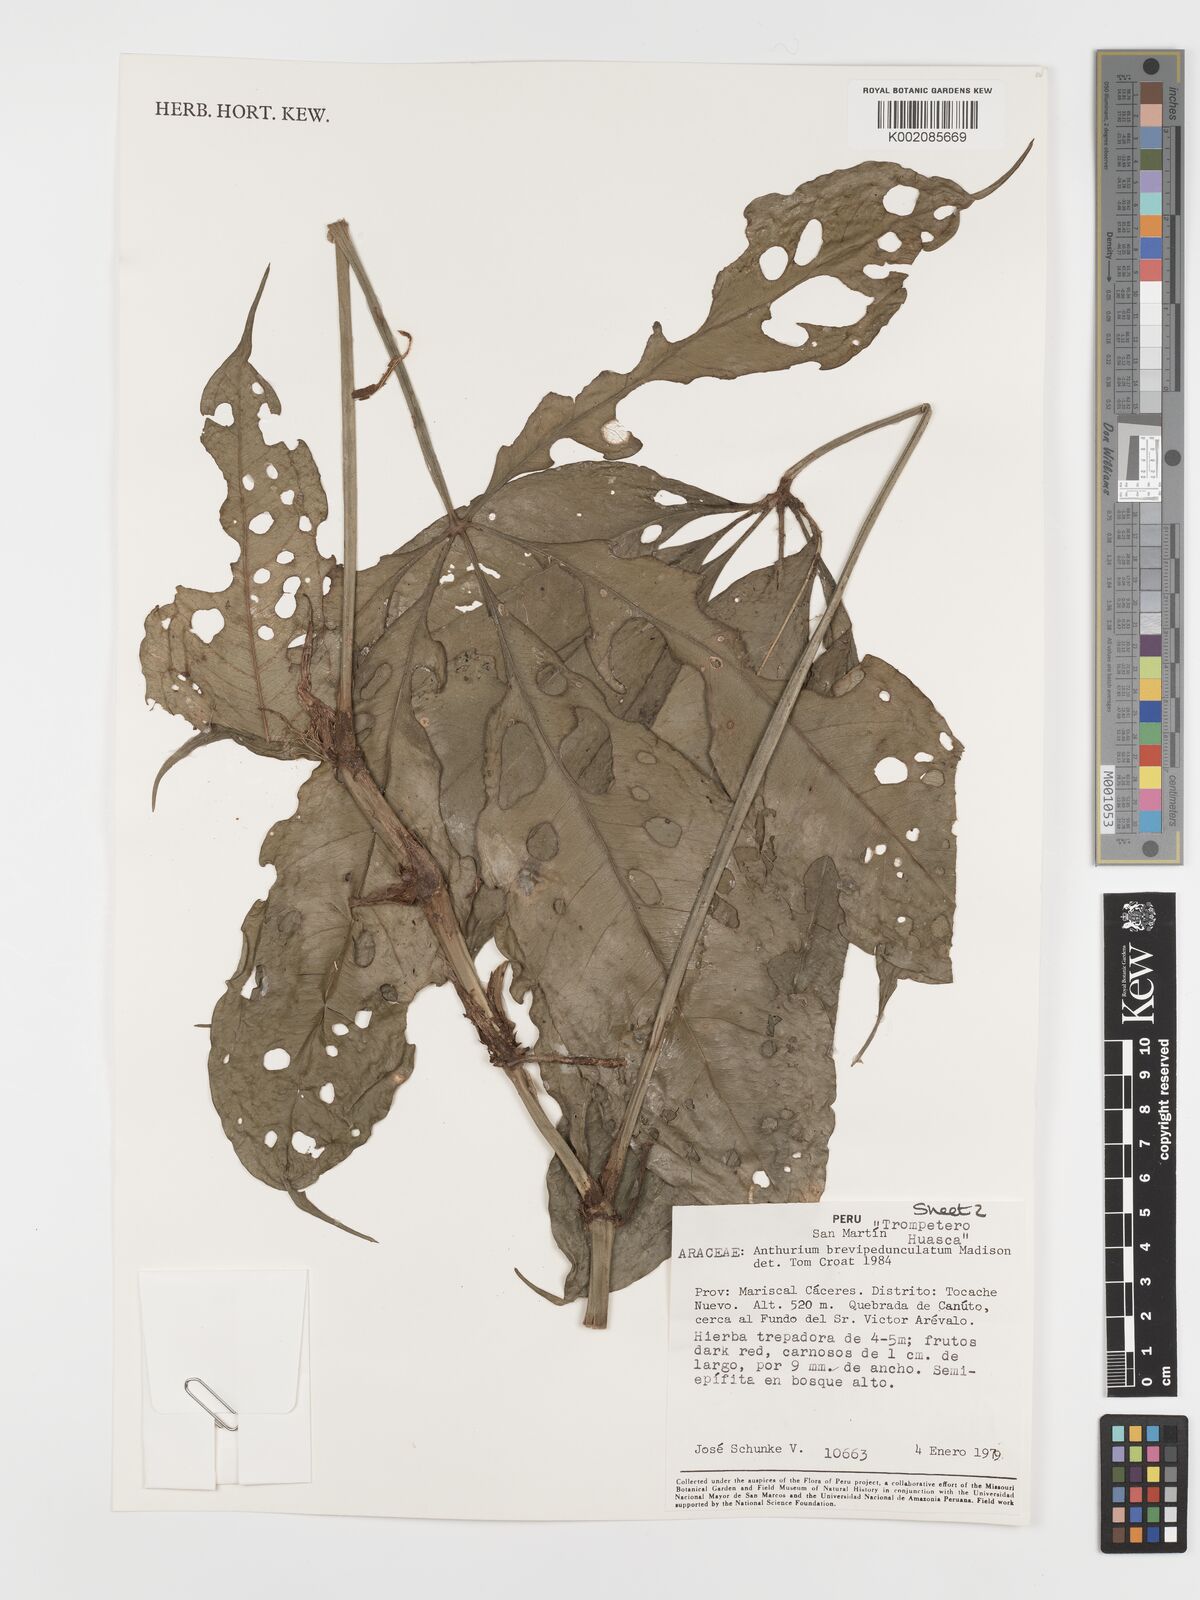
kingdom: Plantae
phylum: Tracheophyta
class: Liliopsida
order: Alismatales
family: Araceae
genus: Anthurium
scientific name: Anthurium brevipedunculatum
